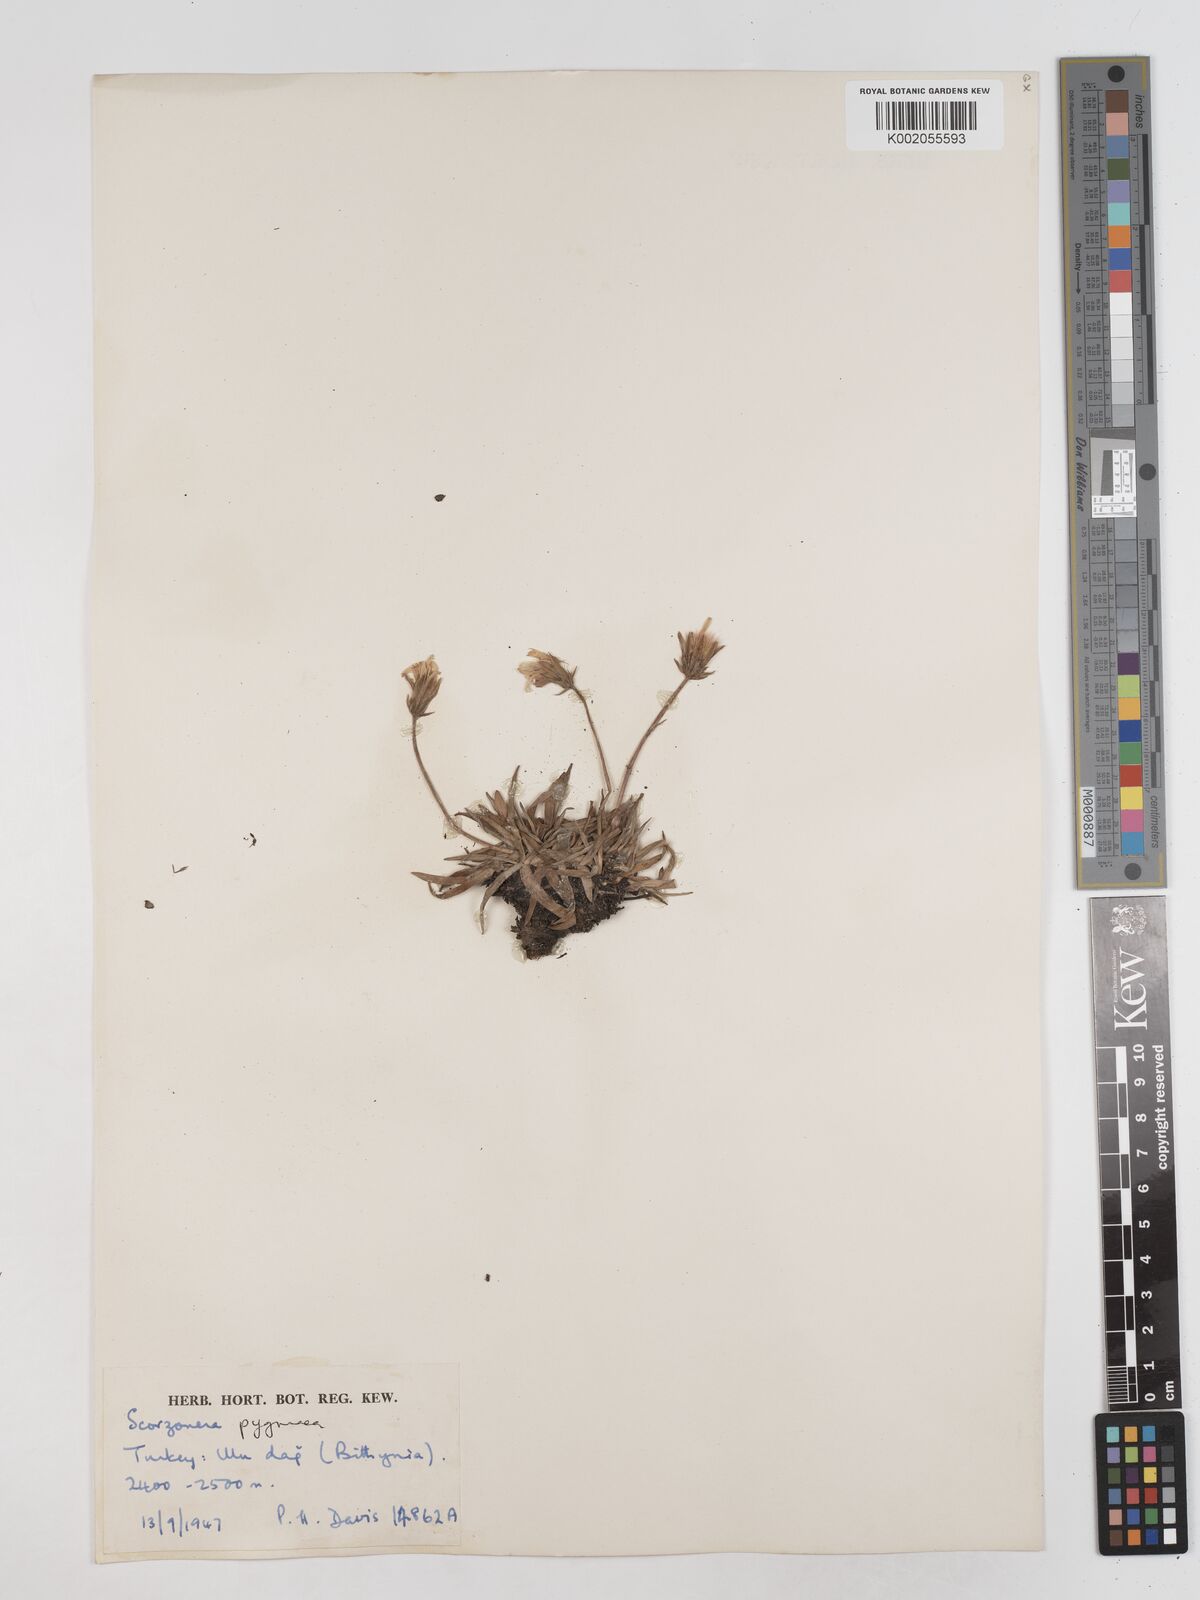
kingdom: Plantae
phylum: Tracheophyta
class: Magnoliopsida
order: Asterales
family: Asteraceae
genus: Scorzonera
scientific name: Scorzonera
